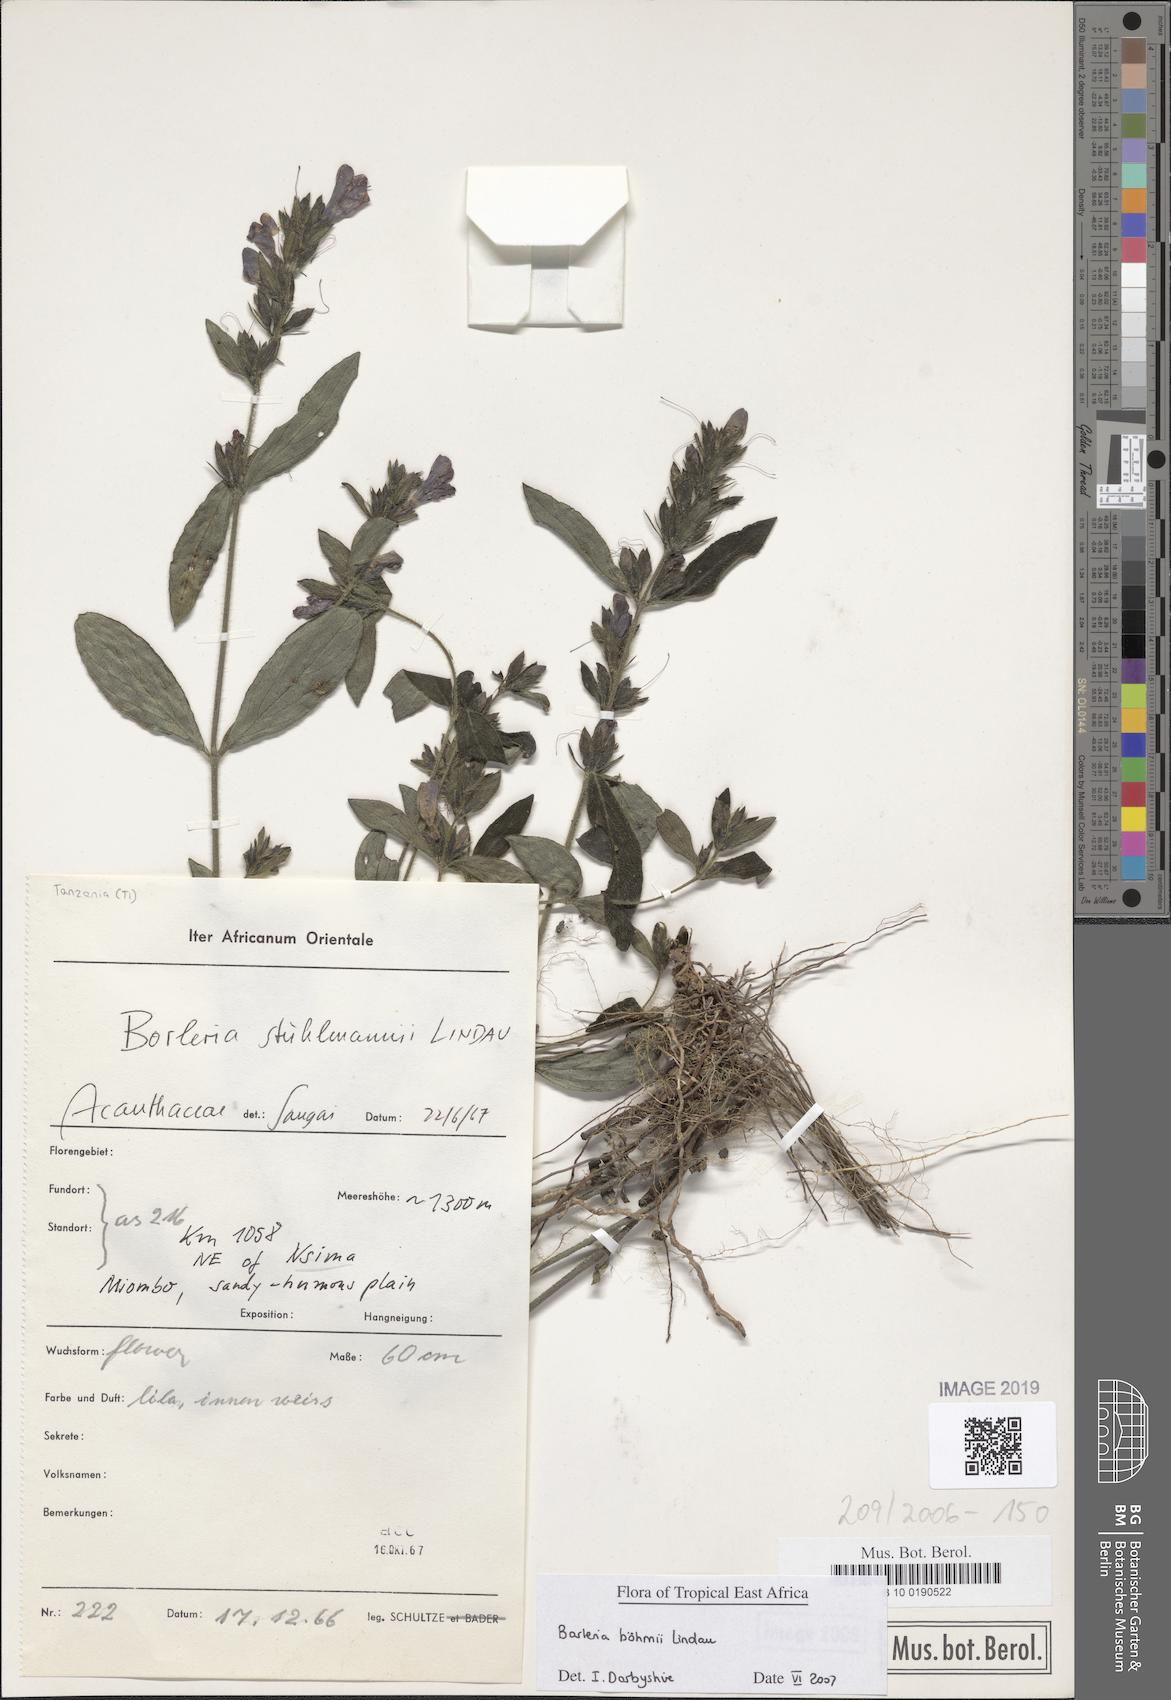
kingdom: Plantae
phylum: Tracheophyta
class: Magnoliopsida
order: Lamiales
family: Acanthaceae
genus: Barleria
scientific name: Barleria boehmii
